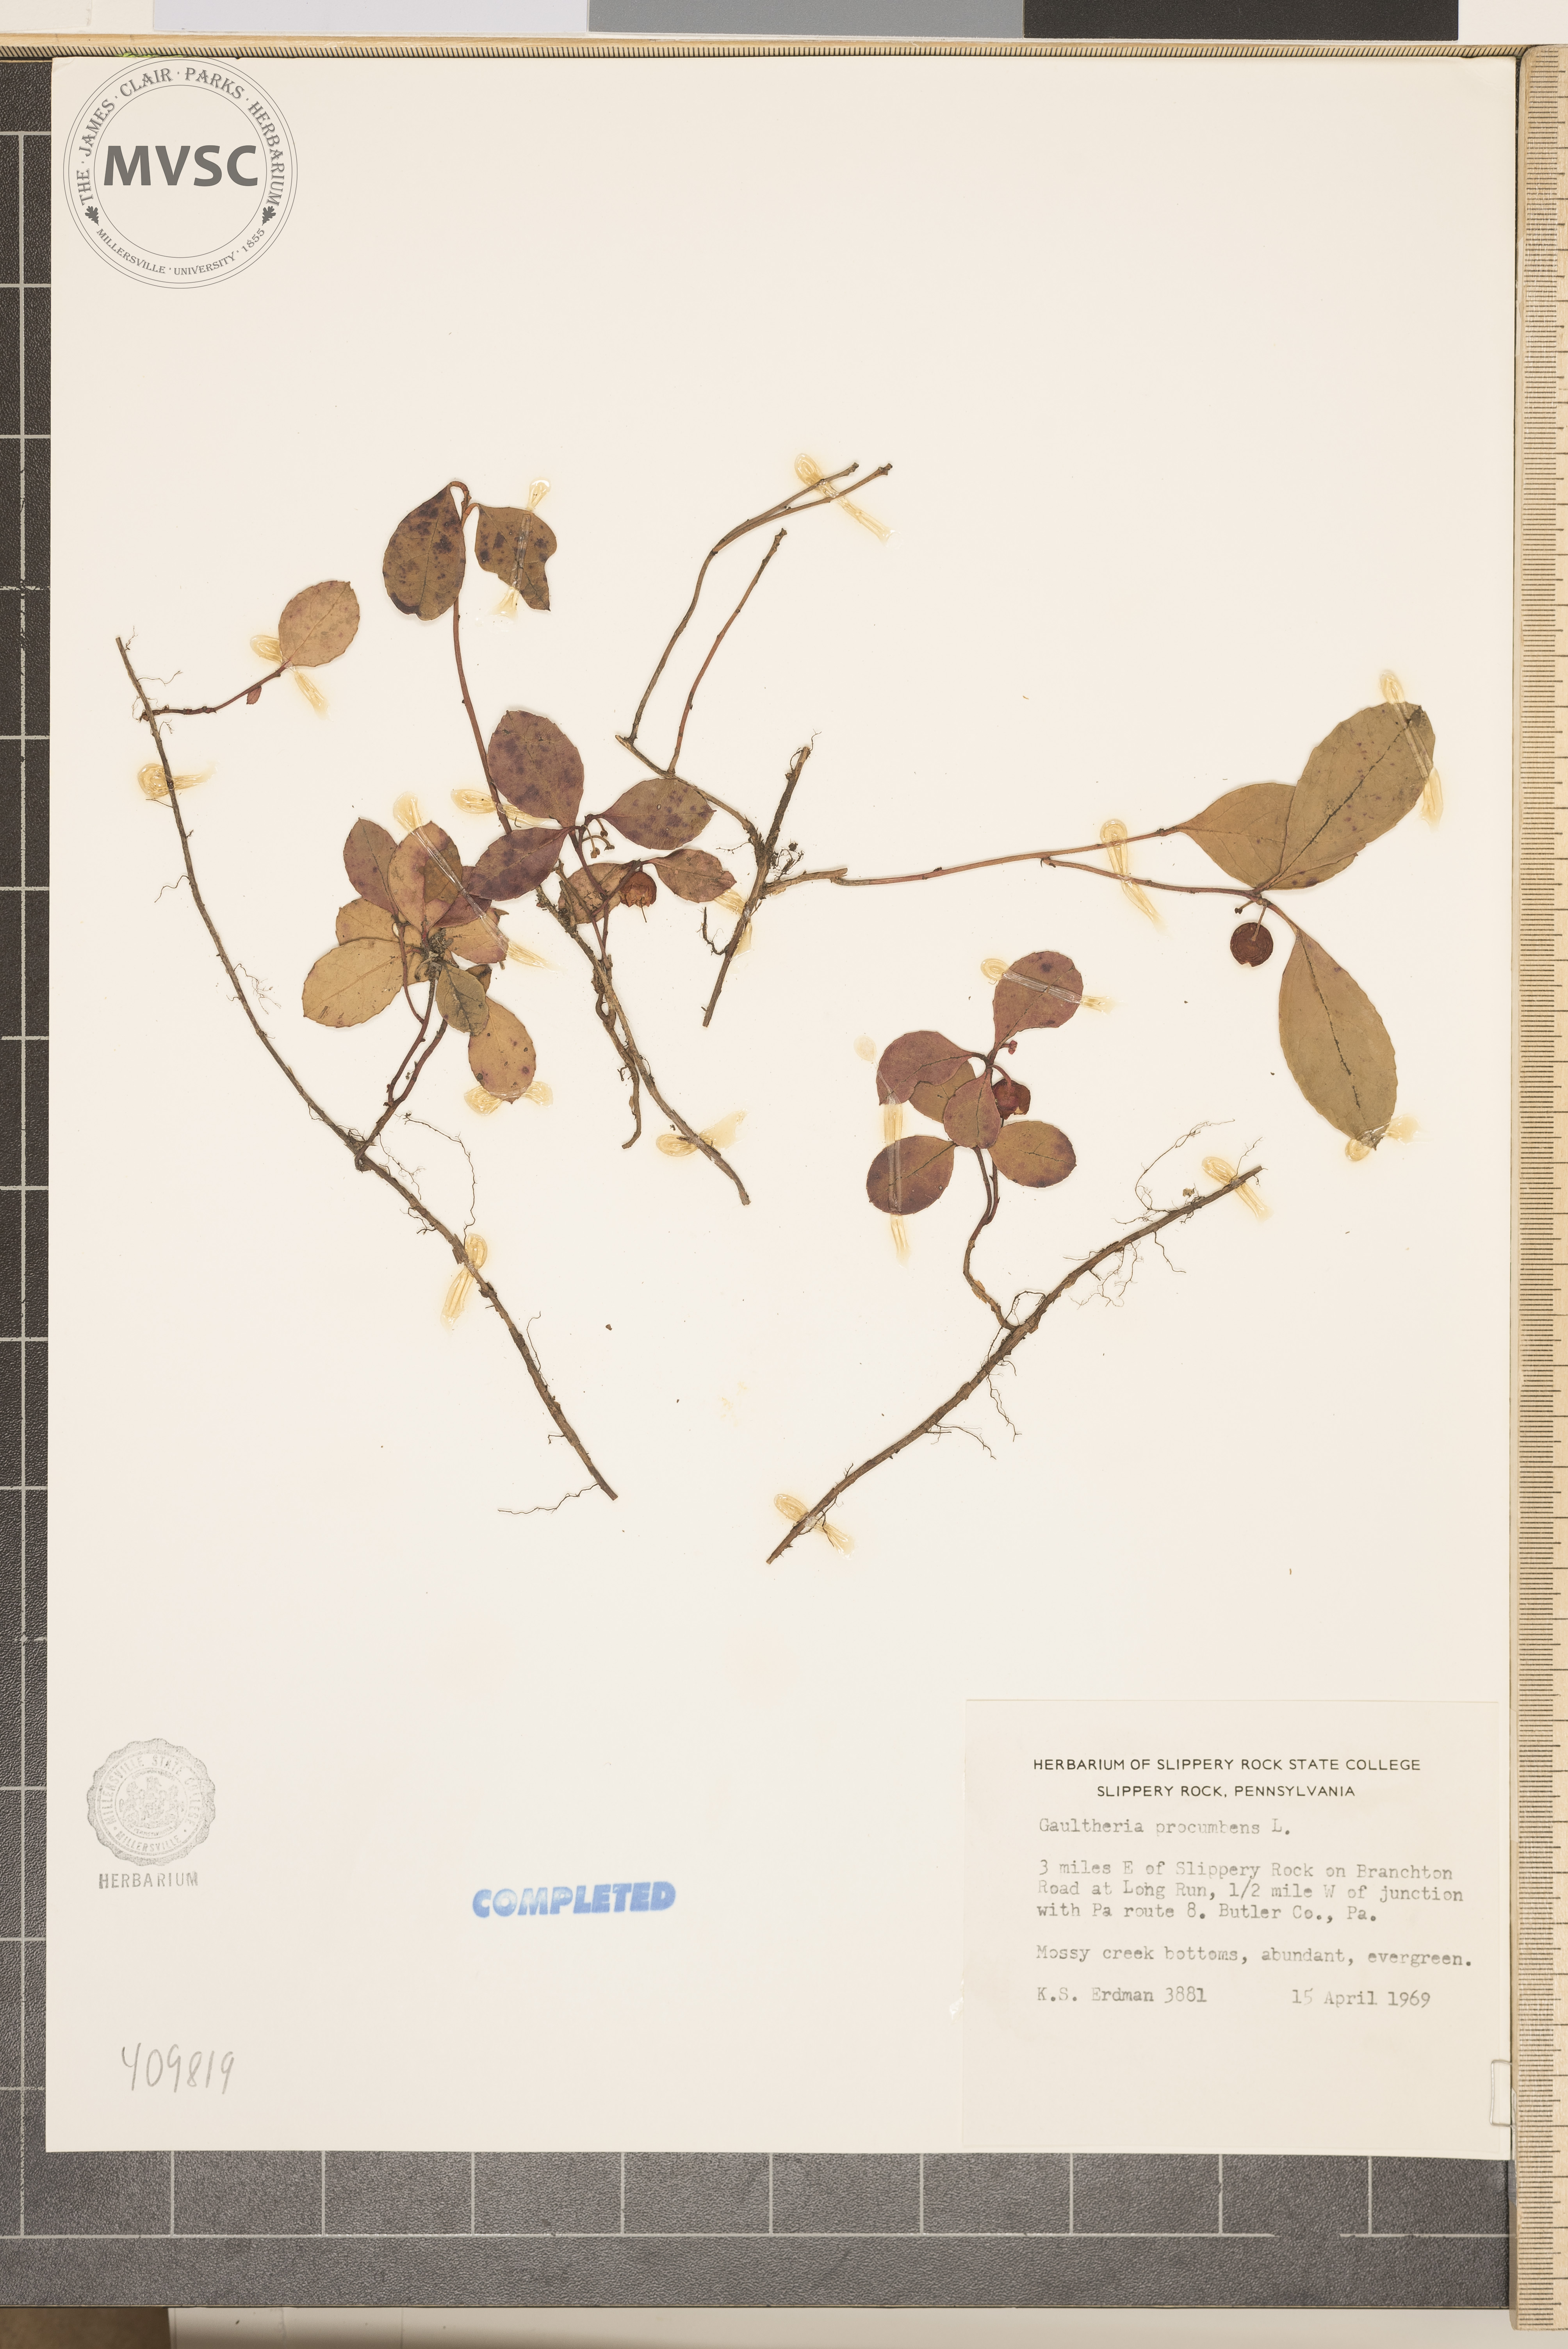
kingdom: Plantae
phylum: Tracheophyta
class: Magnoliopsida
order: Ericales
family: Ericaceae
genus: Gaultheria
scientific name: Gaultheria procumbens
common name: Checkerberry
